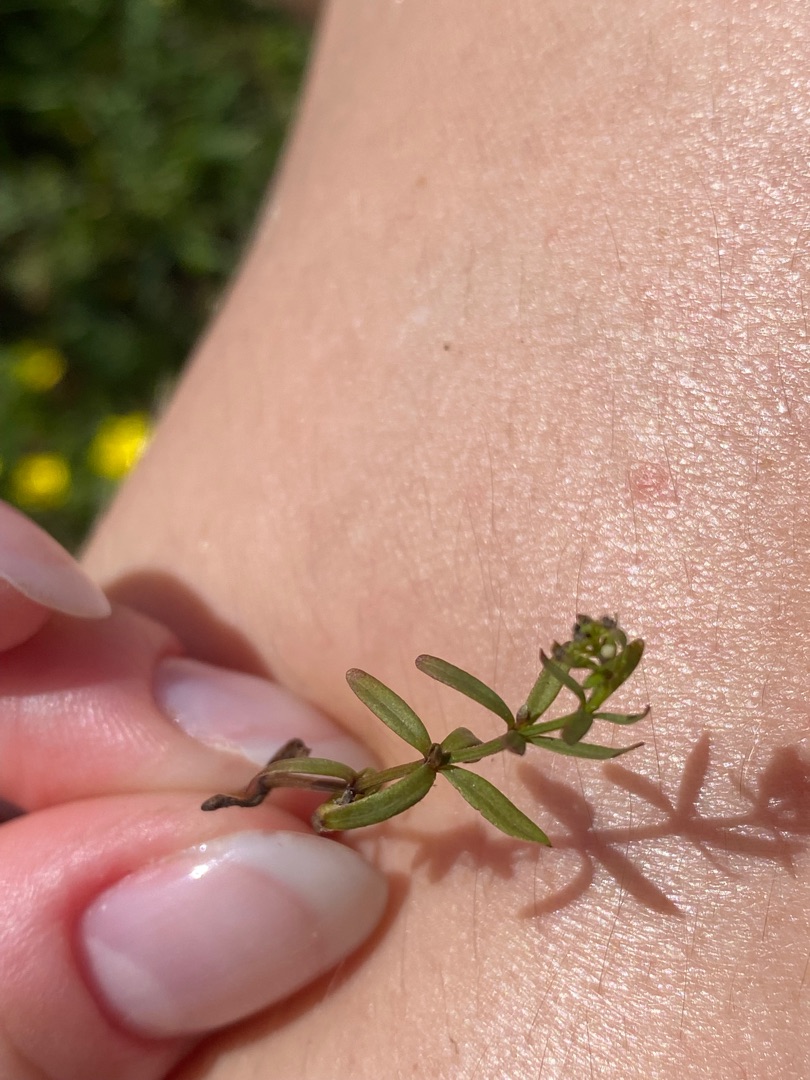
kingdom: Plantae
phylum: Tracheophyta
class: Magnoliopsida
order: Gentianales
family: Rubiaceae
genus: Galium
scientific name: Galium palustre
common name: Kær-snerre
